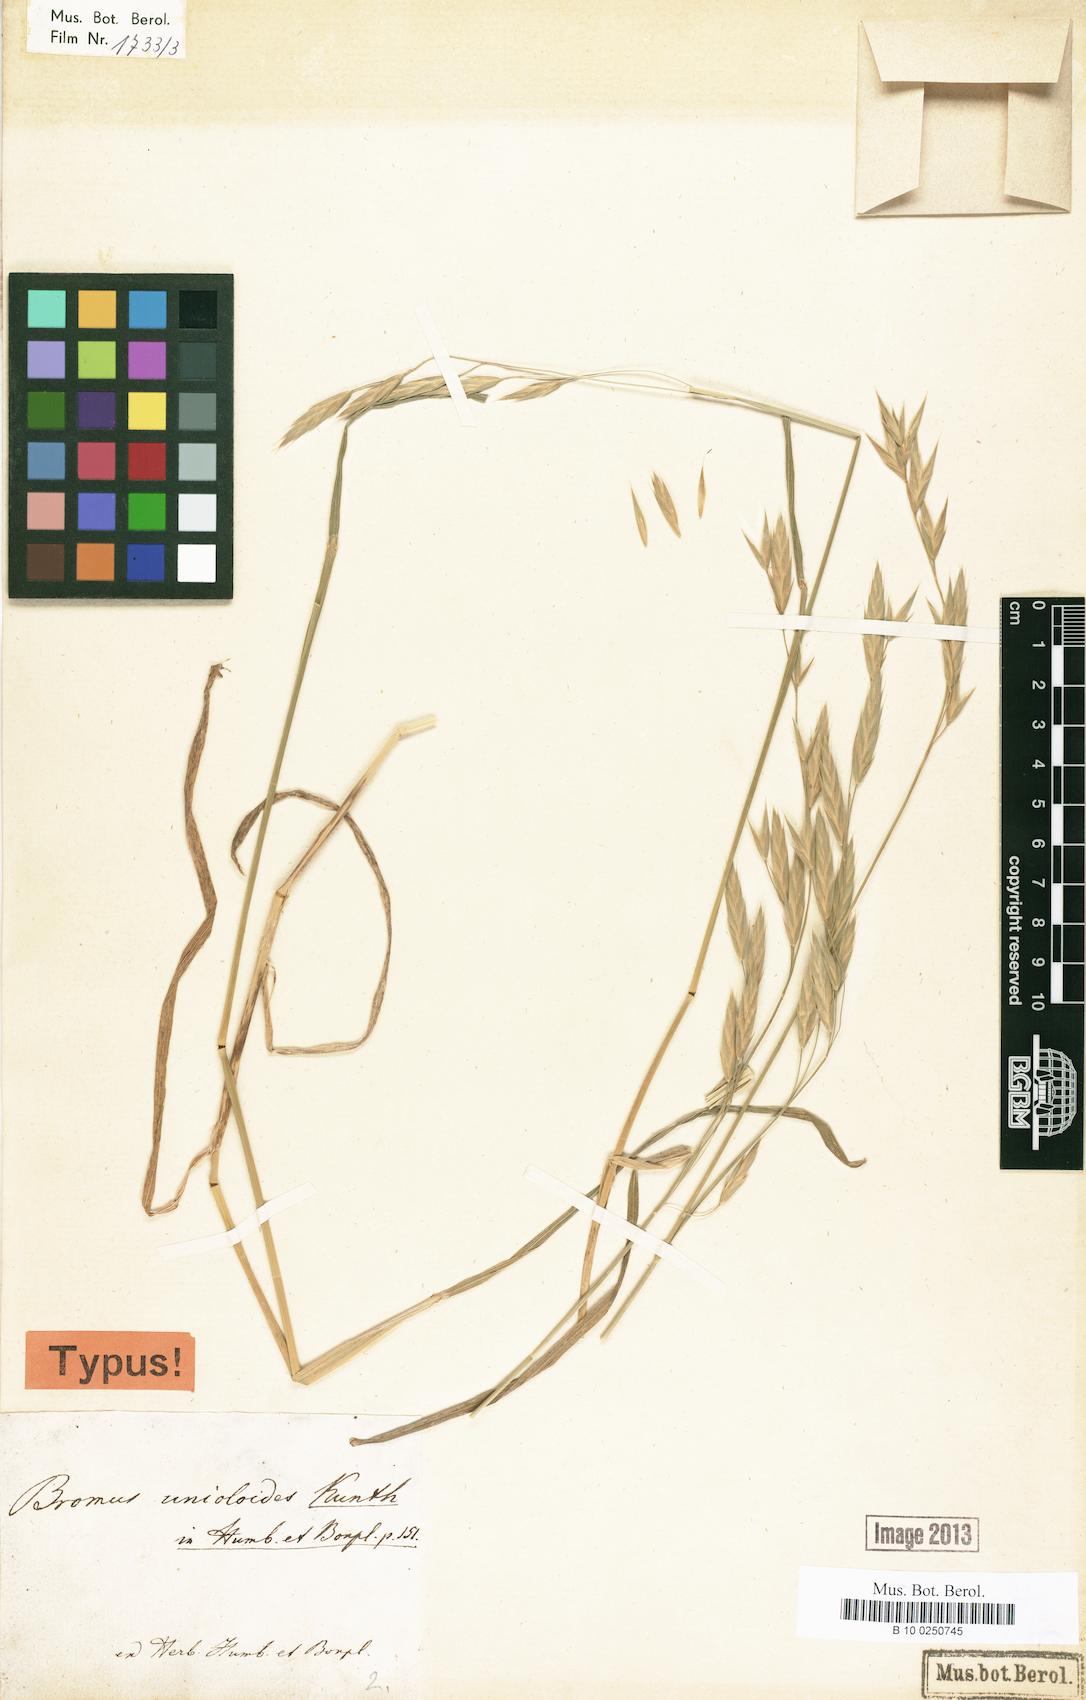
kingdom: Plantae
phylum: Tracheophyta
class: Liliopsida
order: Poales
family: Poaceae
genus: Bromus
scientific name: Bromus catharticus
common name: Rescuegrass
